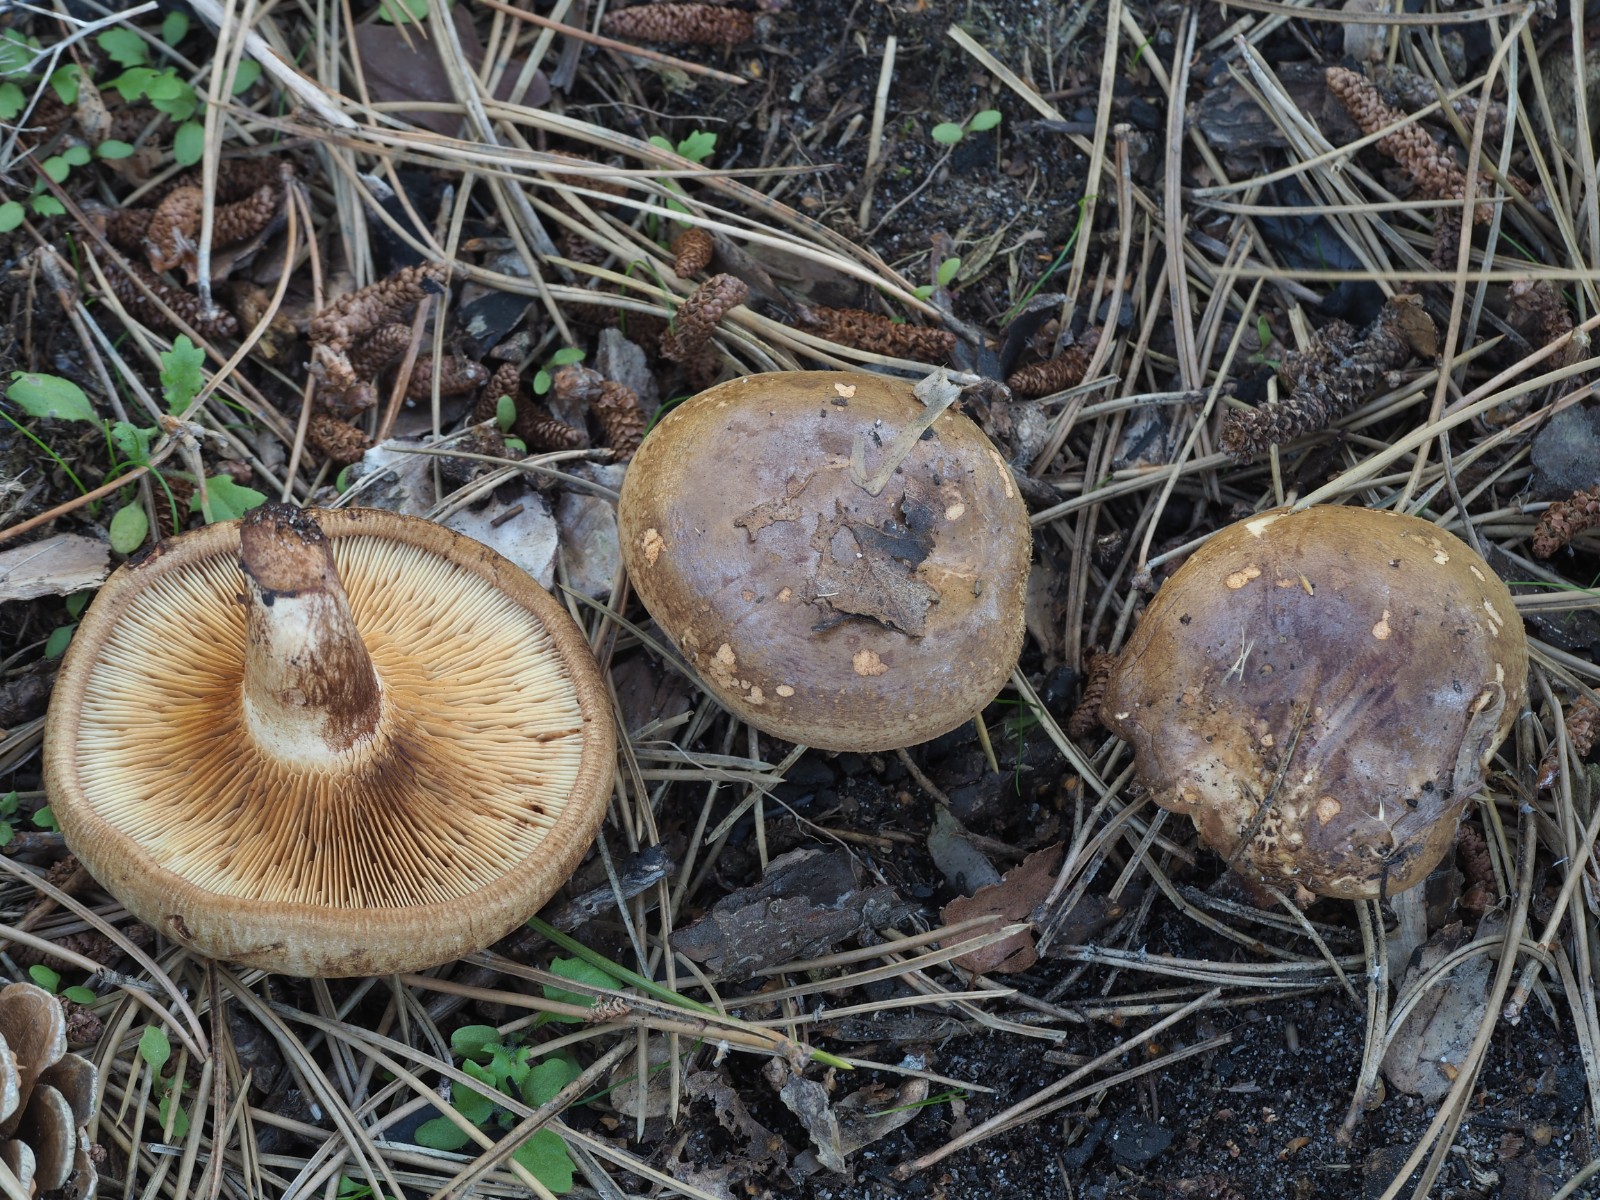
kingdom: Fungi
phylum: Basidiomycota
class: Agaricomycetes
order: Boletales
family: Paxillaceae
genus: Paxillus
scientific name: Paxillus involutus
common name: almindelig netbladhat
